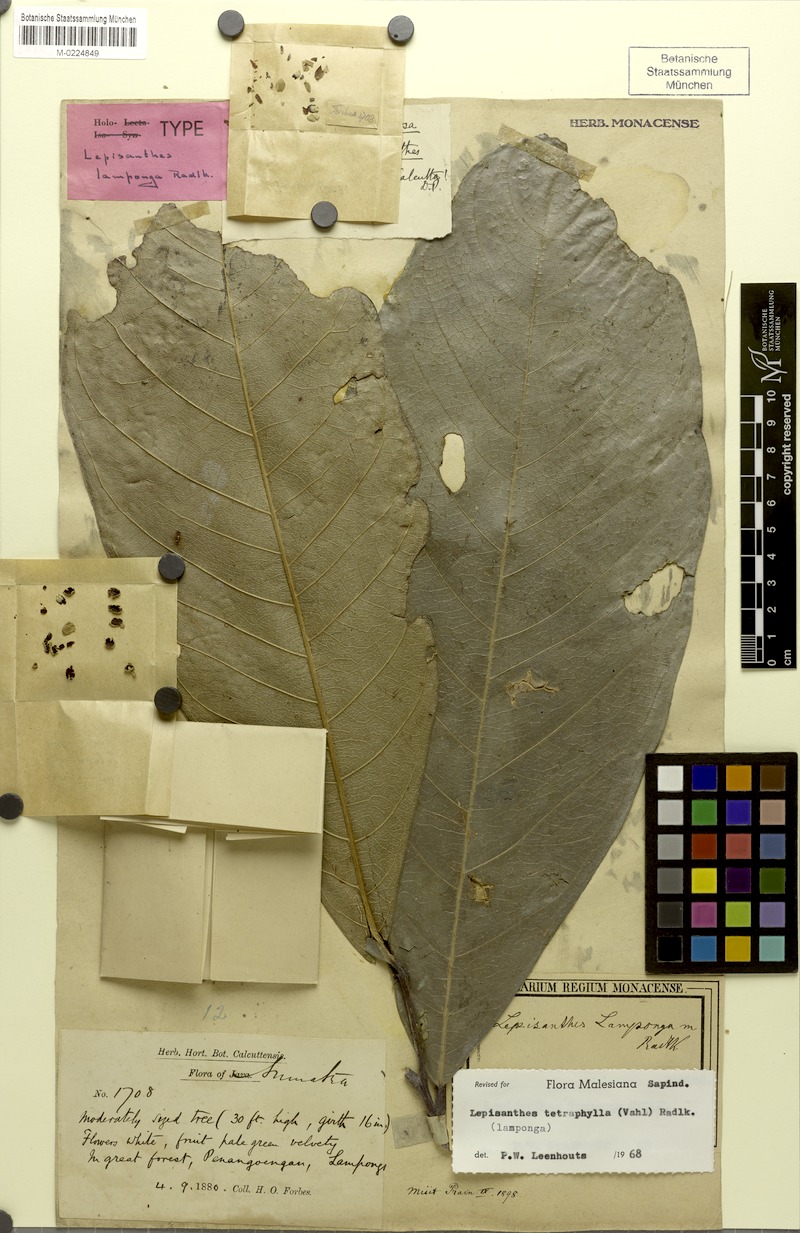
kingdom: Plantae
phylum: Tracheophyta
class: Magnoliopsida
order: Sapindales
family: Sapindaceae
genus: Lepisanthes
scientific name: Lepisanthes lamponga
